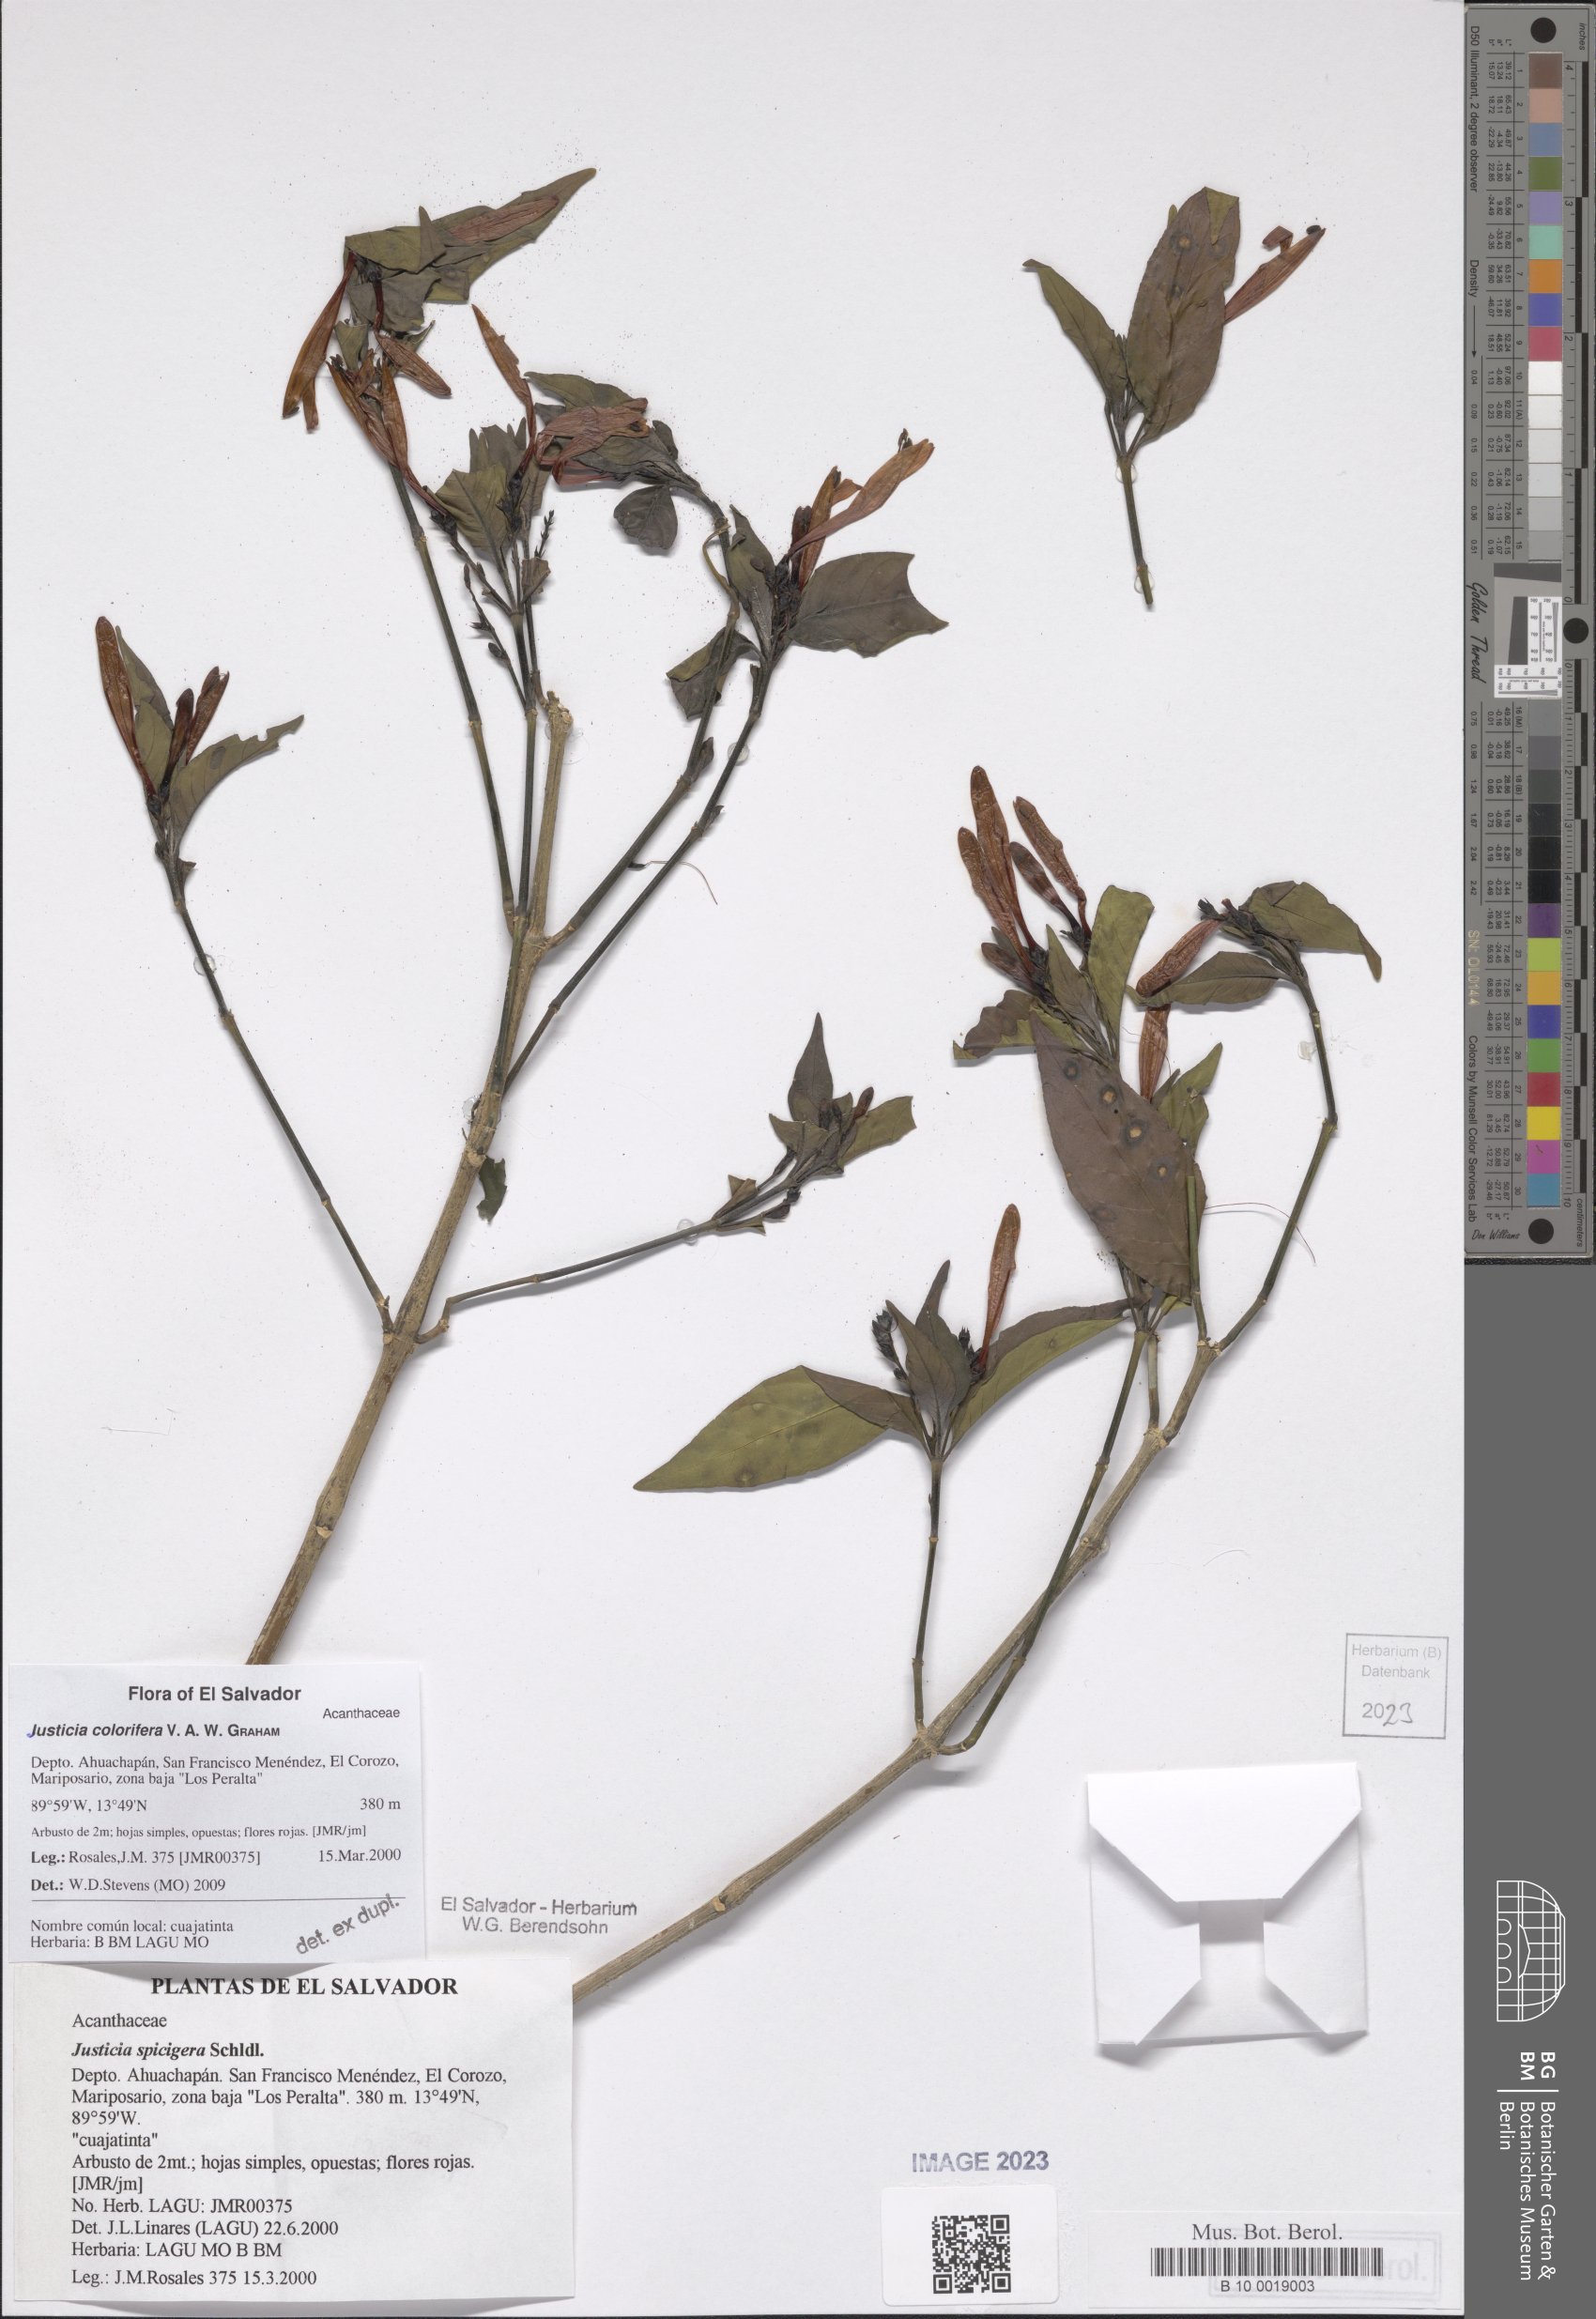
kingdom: Plantae
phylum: Tracheophyta
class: Magnoliopsida
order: Lamiales
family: Acanthaceae
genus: Justicia
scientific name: Justicia tinctoriella
